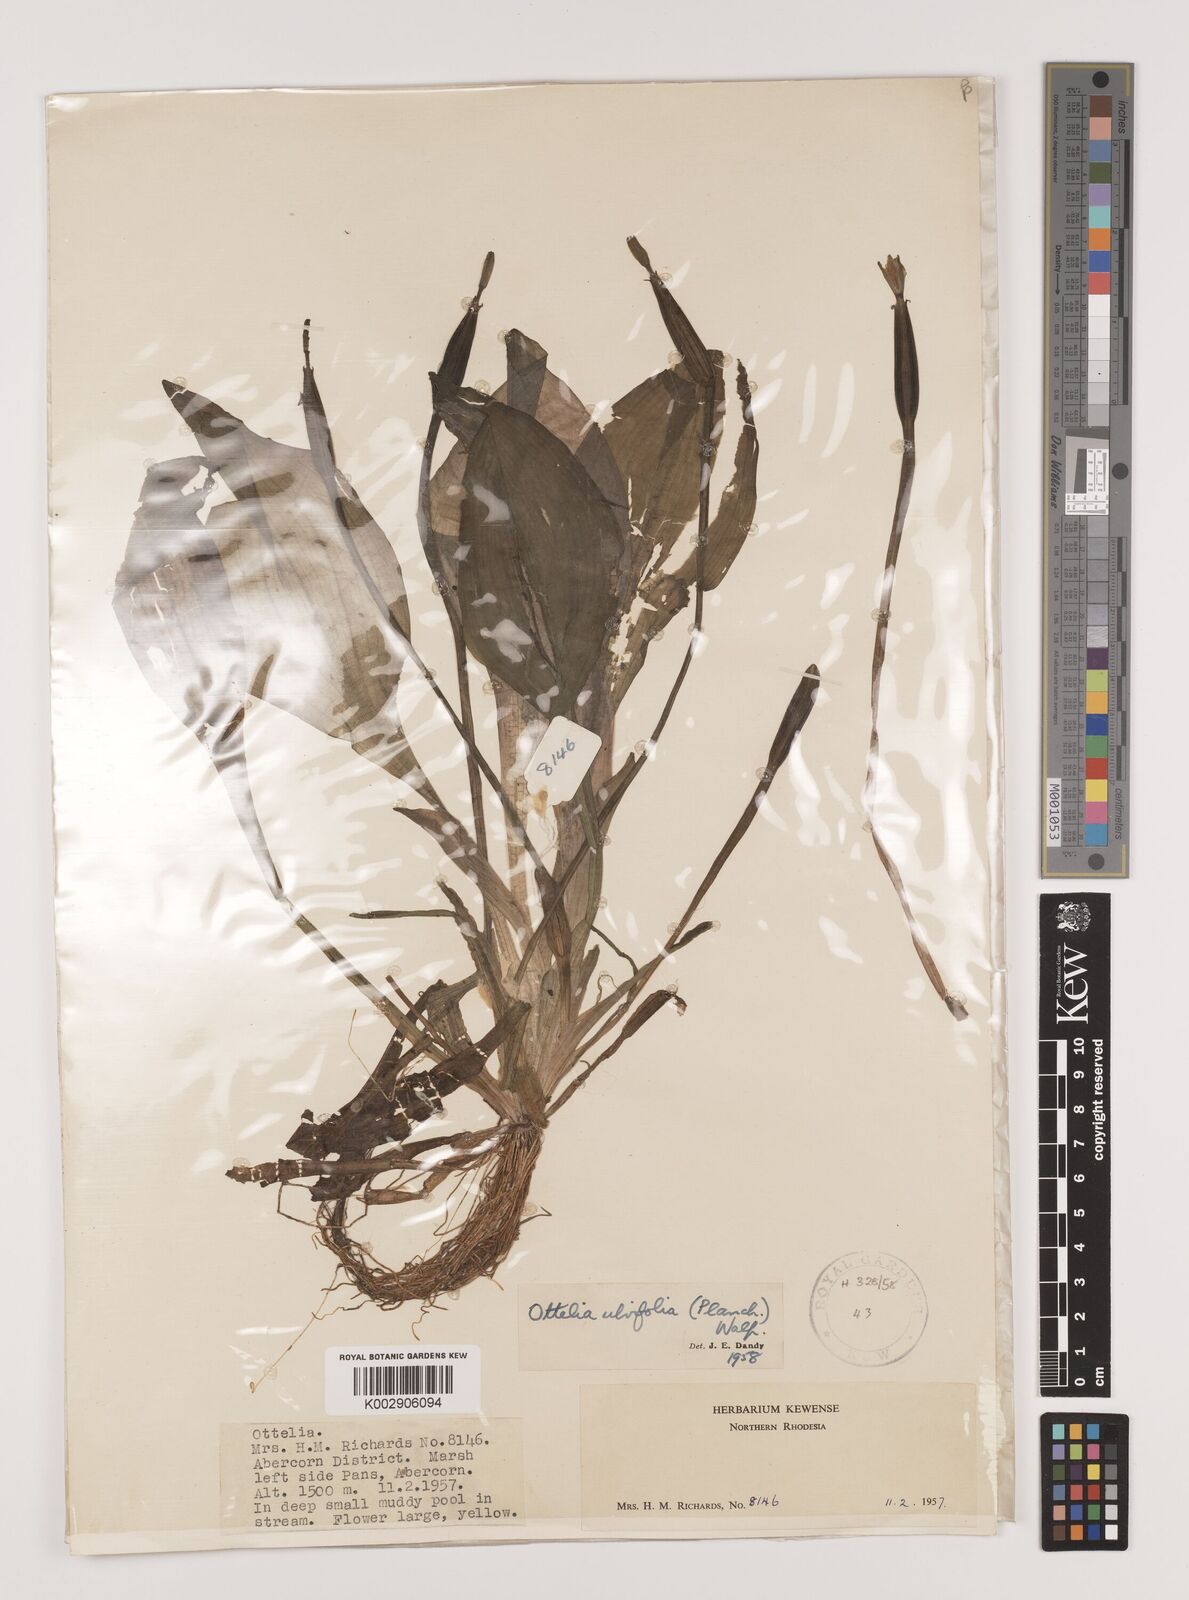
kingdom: Plantae
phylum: Tracheophyta
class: Liliopsida
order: Alismatales
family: Hydrocharitaceae
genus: Ottelia
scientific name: Ottelia ulvifolia
